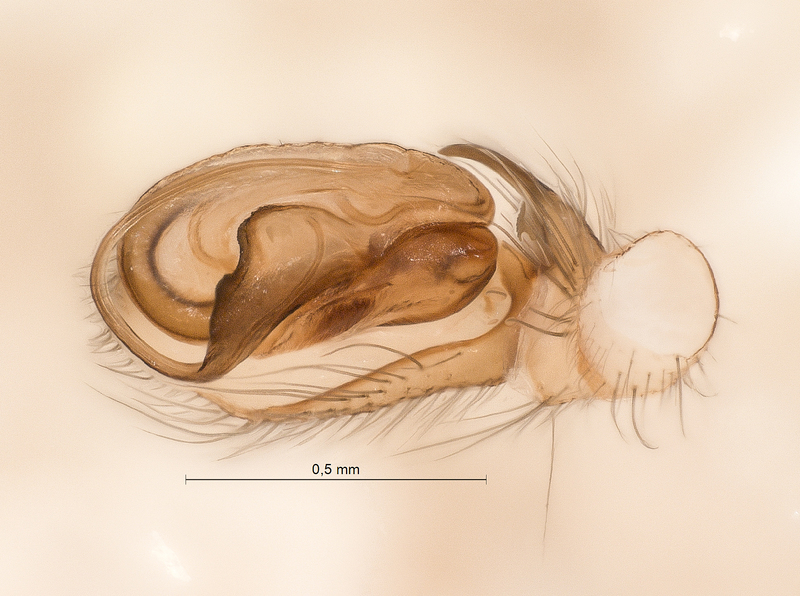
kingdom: Animalia
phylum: Arthropoda
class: Arachnida
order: Araneae
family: Clubionidae
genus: Clubiona
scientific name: Clubiona comta
